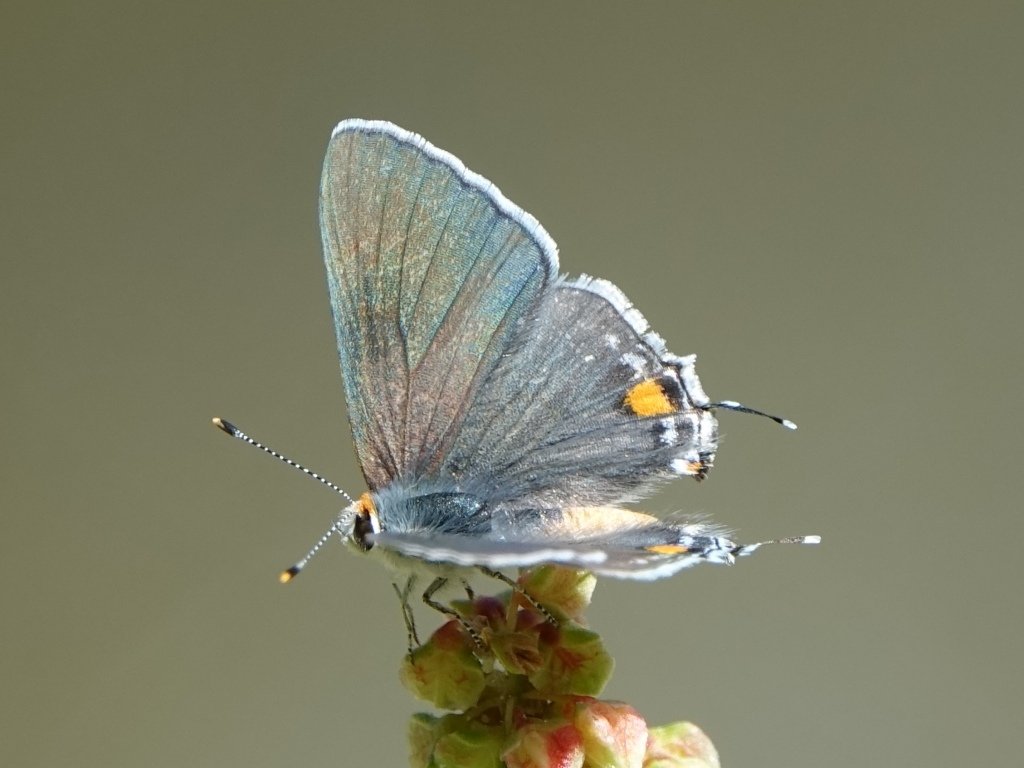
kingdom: Animalia
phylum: Arthropoda
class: Insecta
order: Lepidoptera
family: Lycaenidae
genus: Strymon
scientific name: Strymon melinus
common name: Gray Hairstreak
